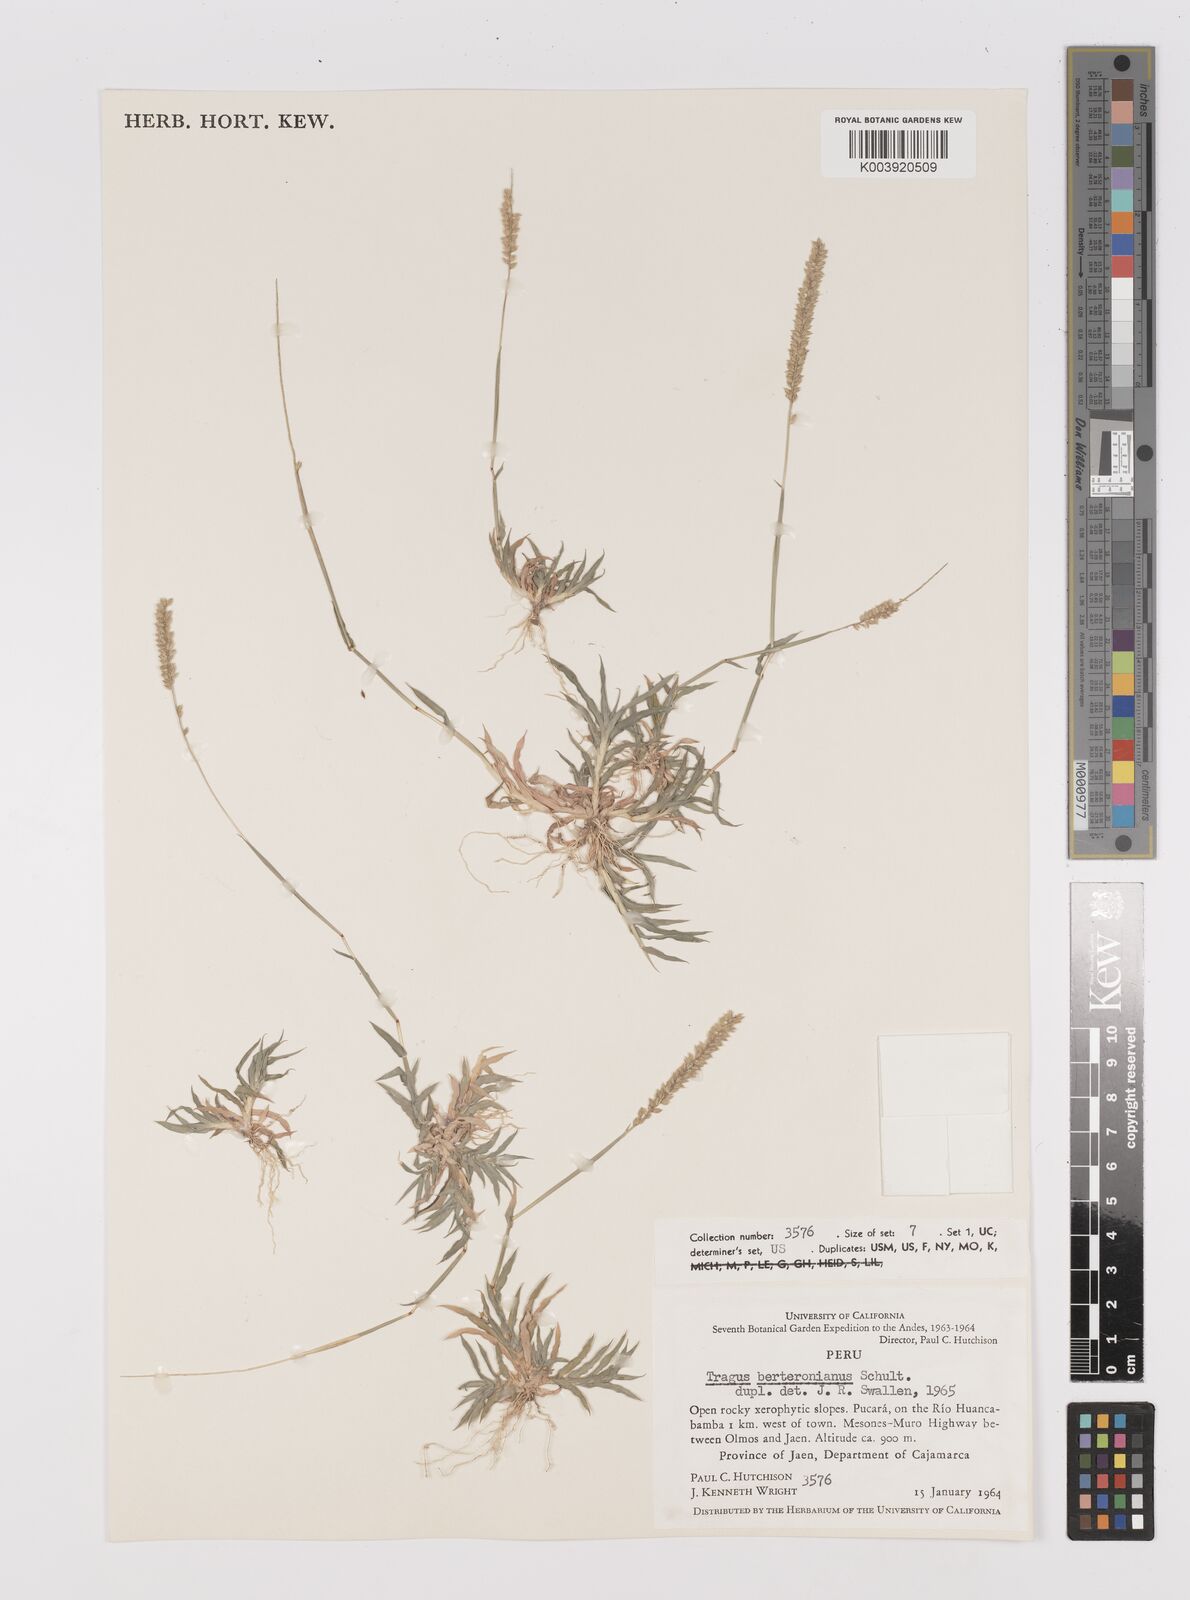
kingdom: Plantae
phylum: Tracheophyta
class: Liliopsida
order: Poales
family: Poaceae
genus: Tragus
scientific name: Tragus berteronianus
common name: African bur-grass
